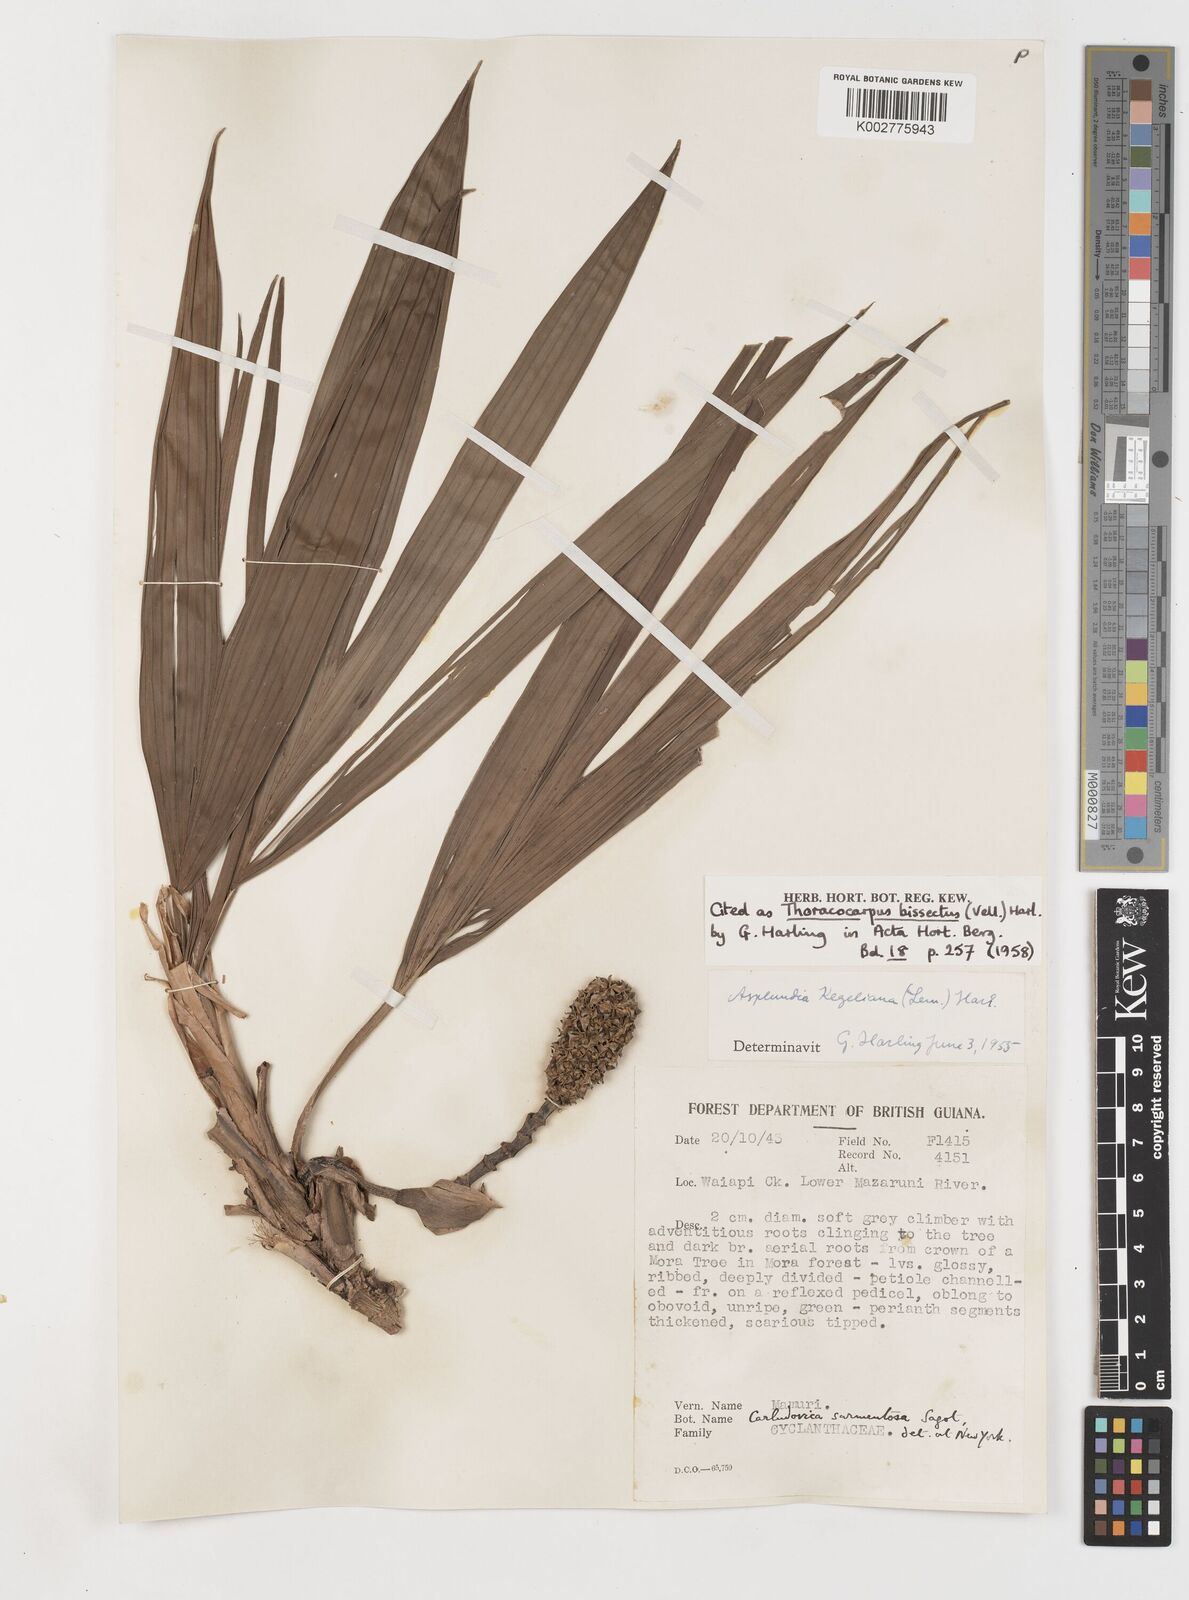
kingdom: Plantae
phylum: Tracheophyta
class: Liliopsida
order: Pandanales
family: Cyclanthaceae
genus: Thoracocarpus
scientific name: Thoracocarpus bissectus
